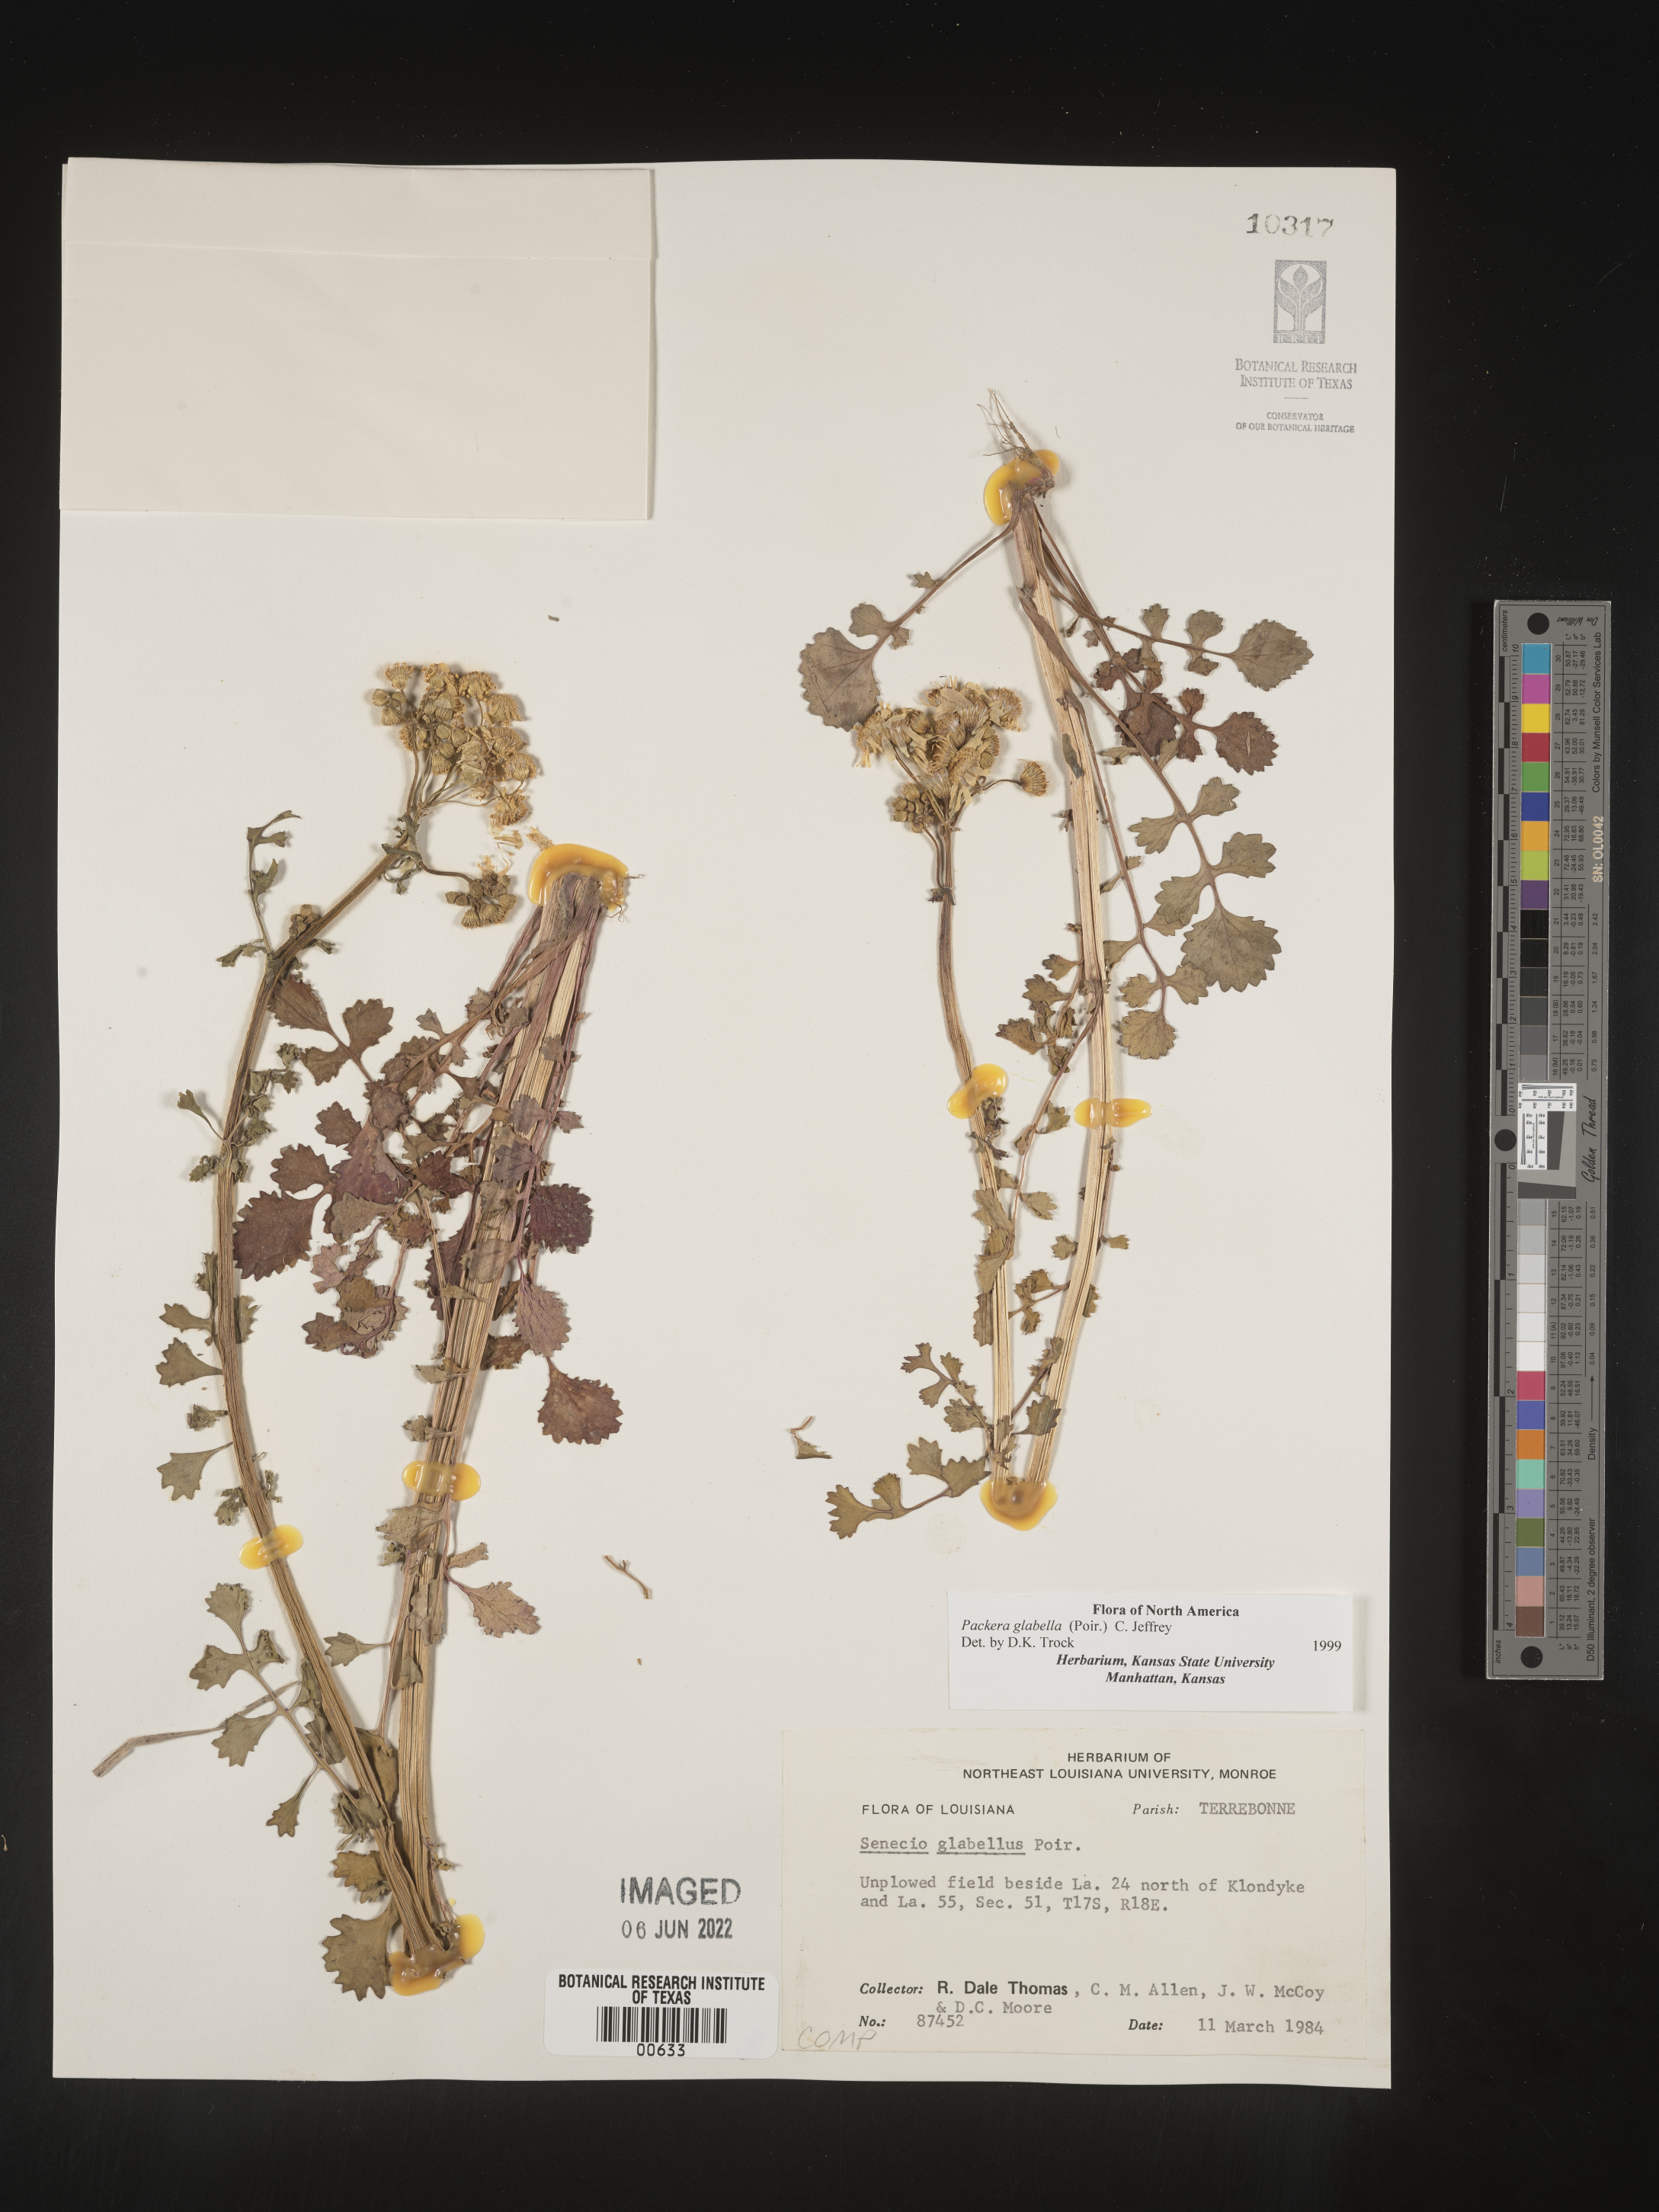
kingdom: Plantae
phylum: Tracheophyta
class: Magnoliopsida
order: Asterales
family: Asteraceae
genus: Packera
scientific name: Packera glabella
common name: Butterweed
